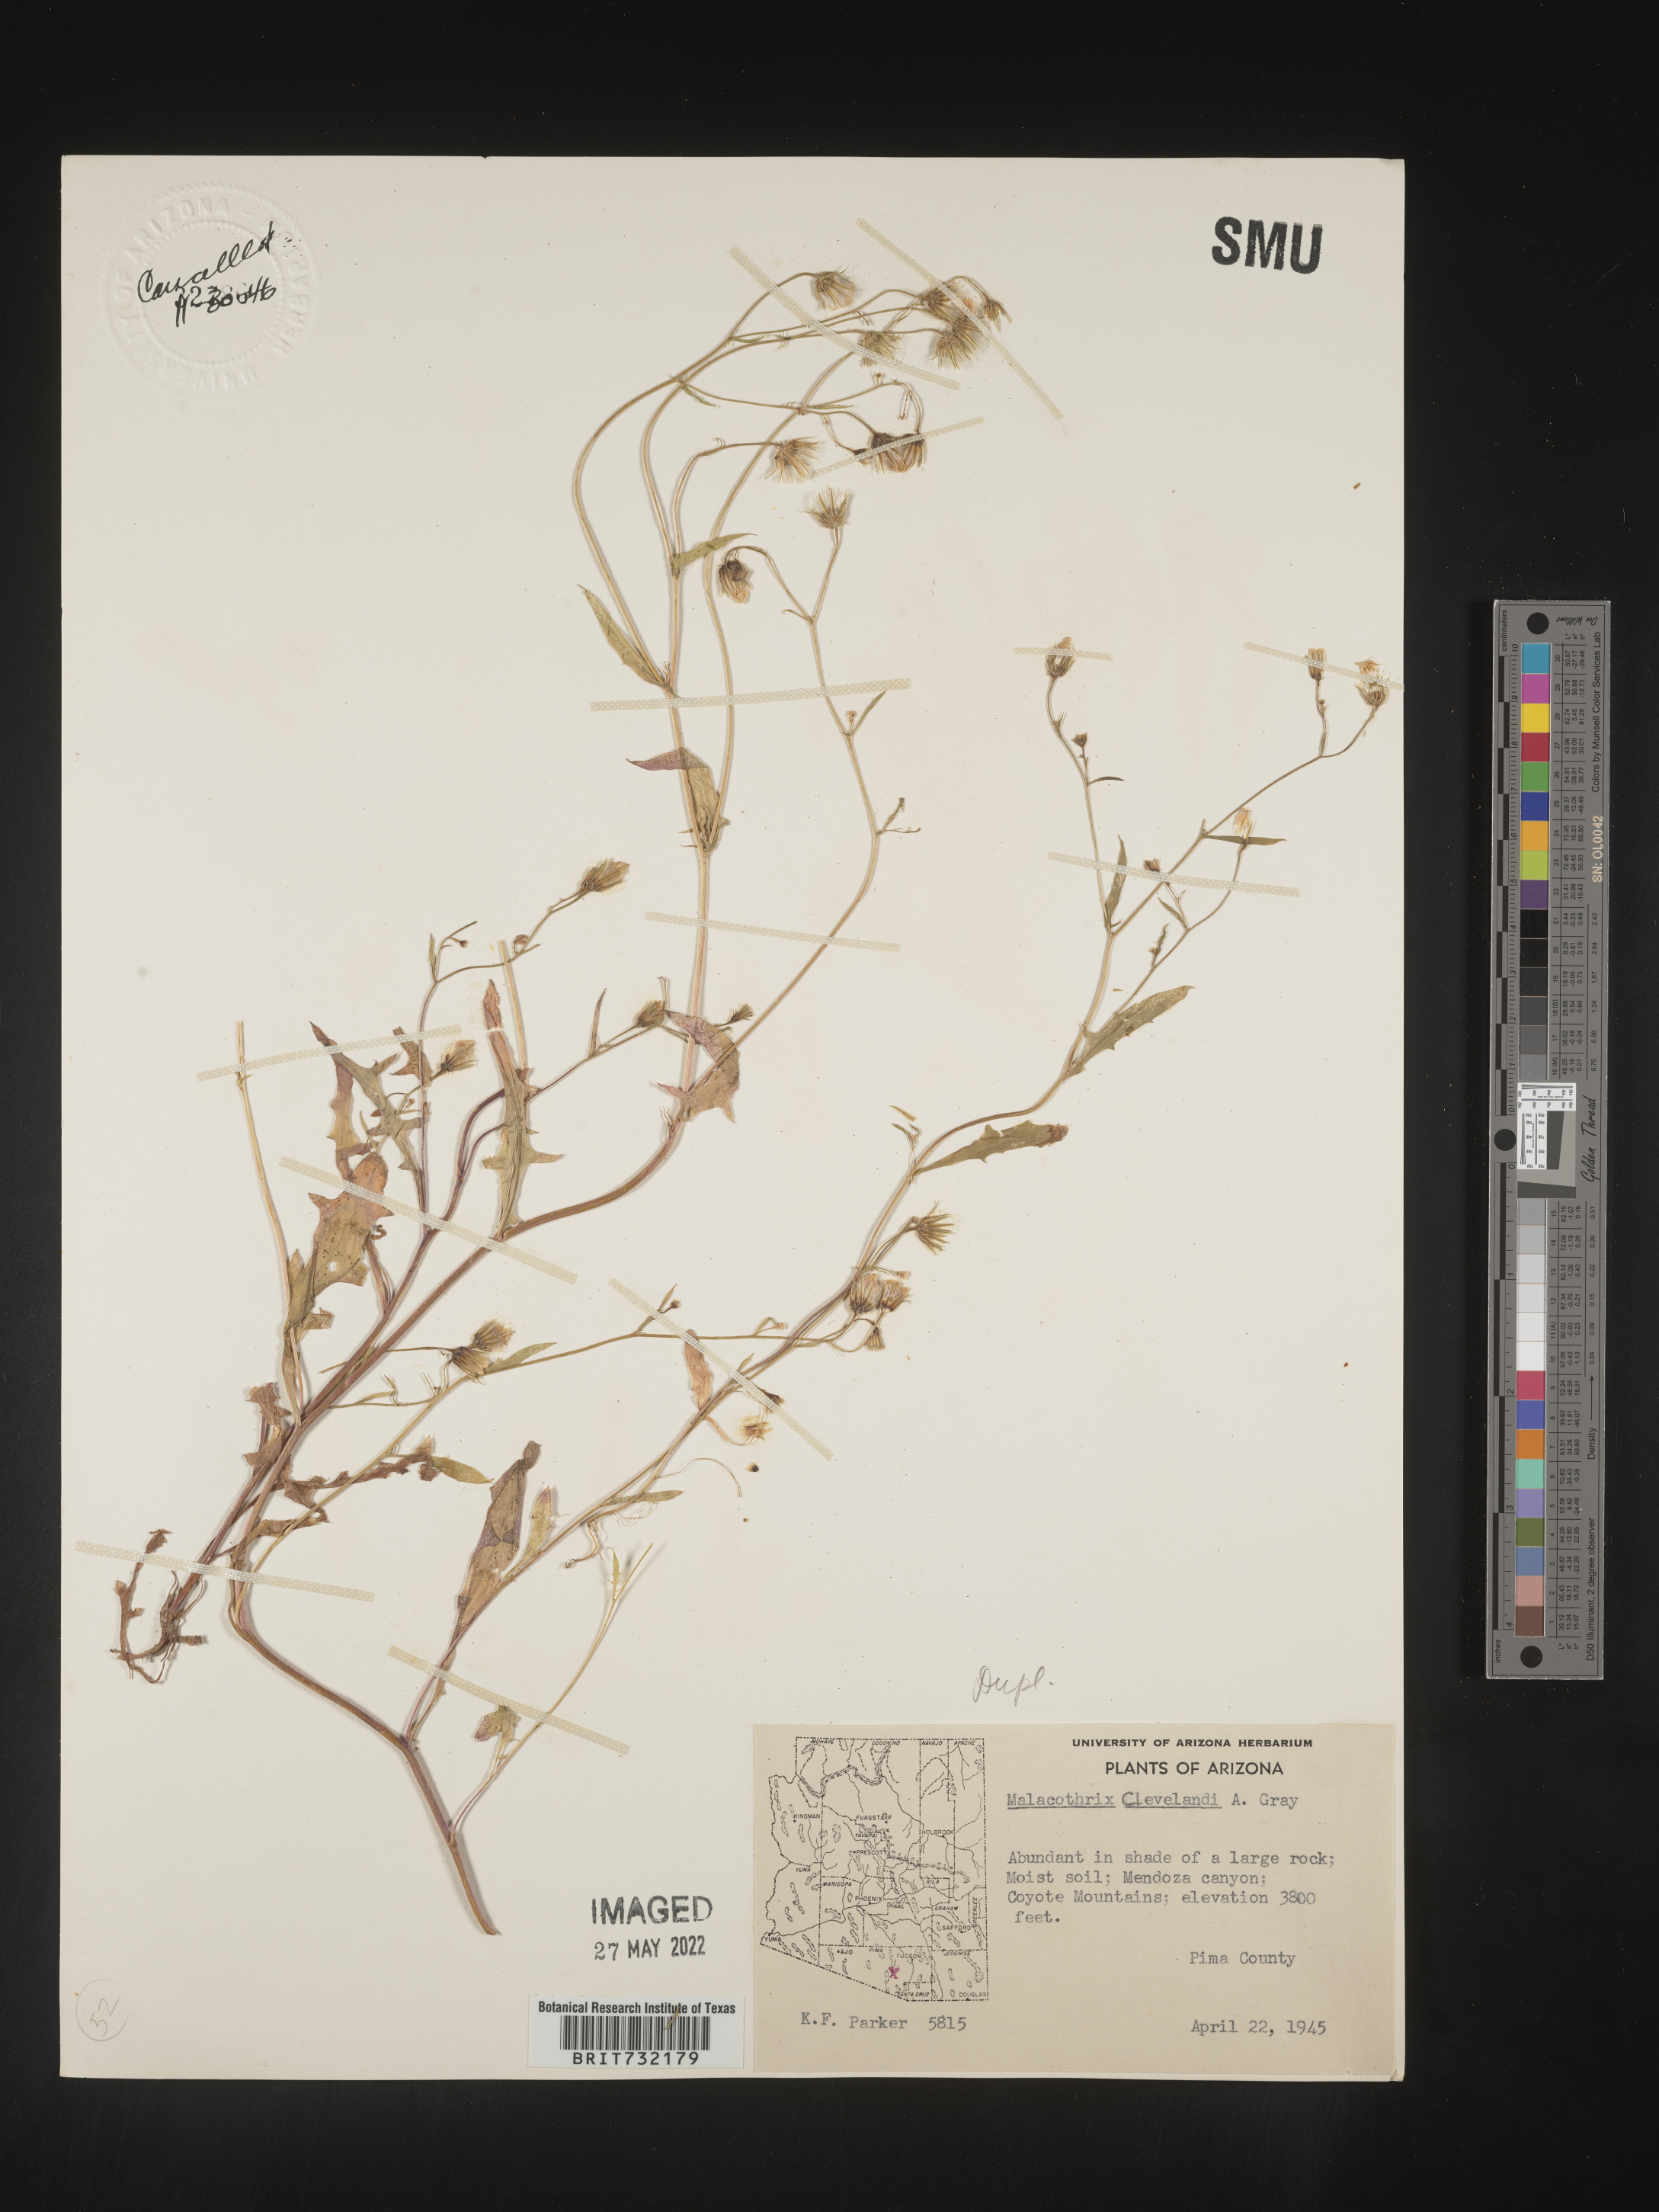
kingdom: Plantae
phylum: Tracheophyta
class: Magnoliopsida
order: Asterales
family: Asteraceae
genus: Malacothrix
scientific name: Malacothrix
